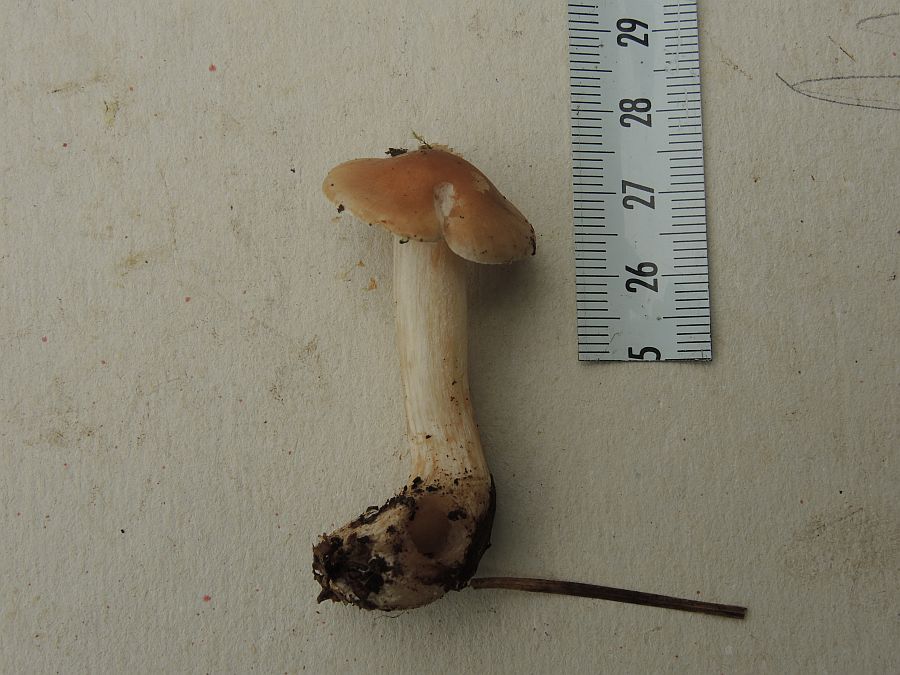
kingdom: Fungi
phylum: Basidiomycota
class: Agaricomycetes
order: Agaricales
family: Hymenogastraceae
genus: Hebeloma
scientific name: Hebeloma
